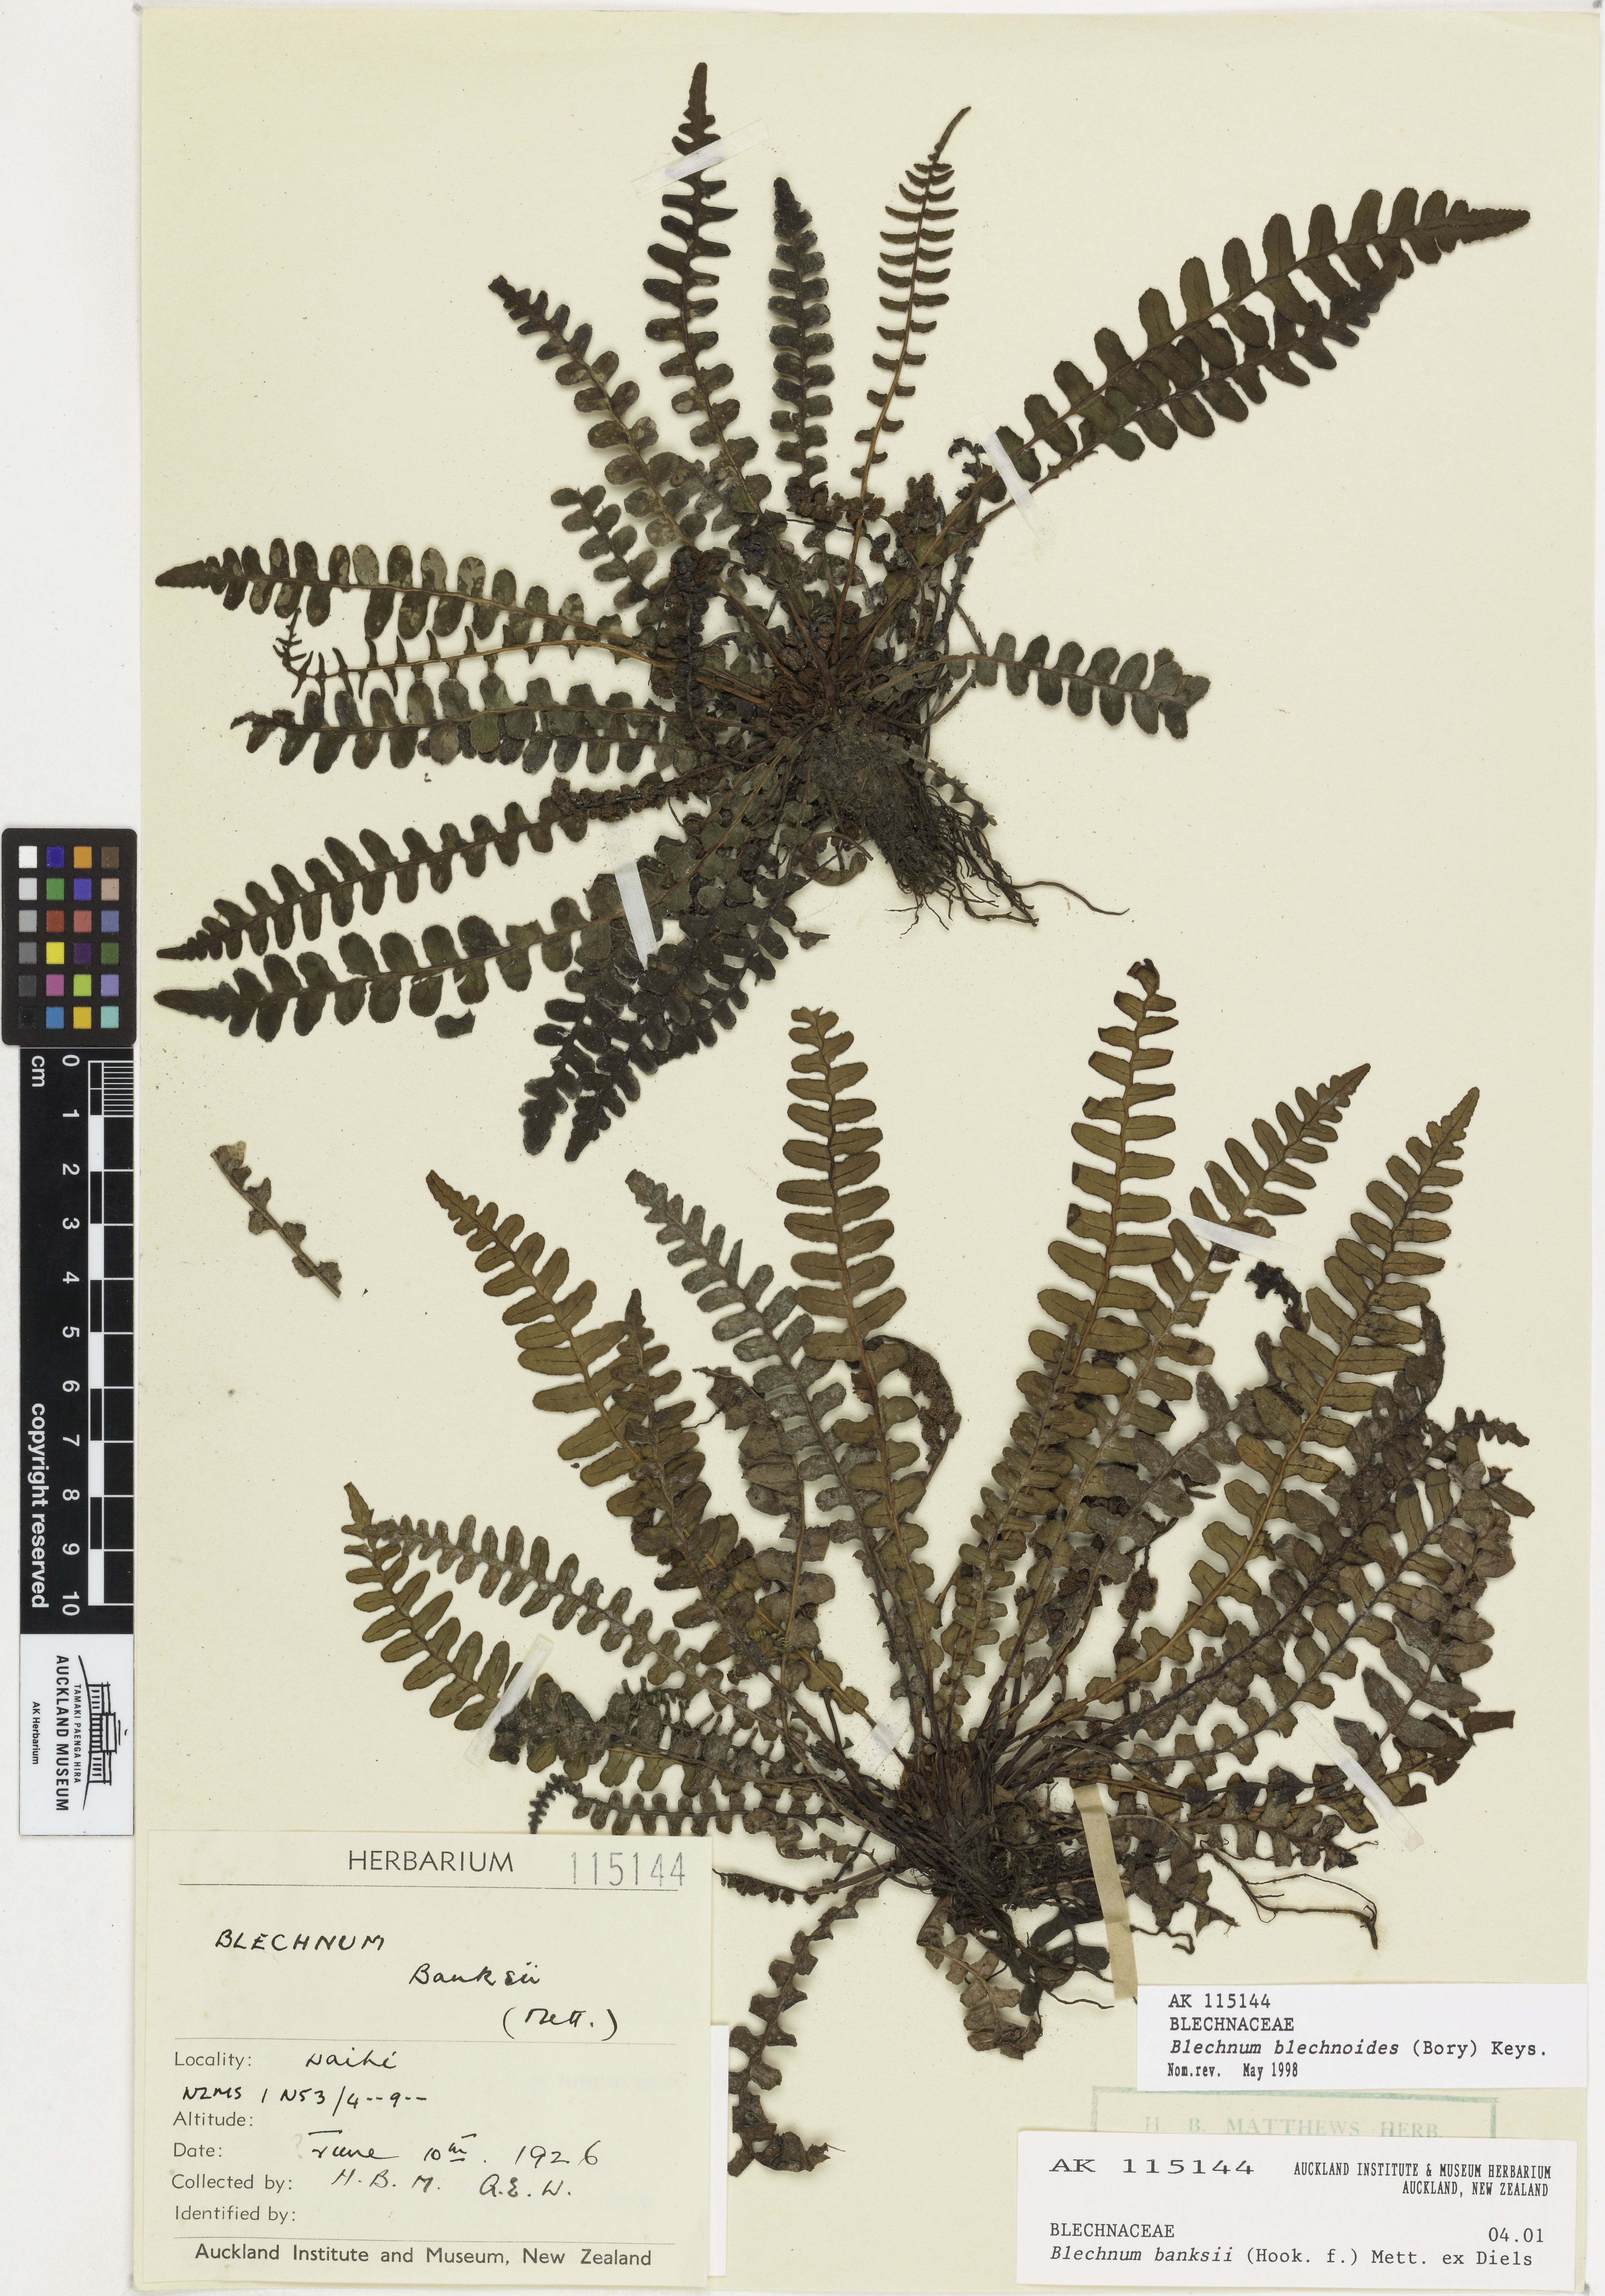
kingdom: Plantae
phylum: Tracheophyta
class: Polypodiopsida
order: Polypodiales
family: Blechnaceae
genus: Austroblechnum
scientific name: Austroblechnum leyboldtianum
